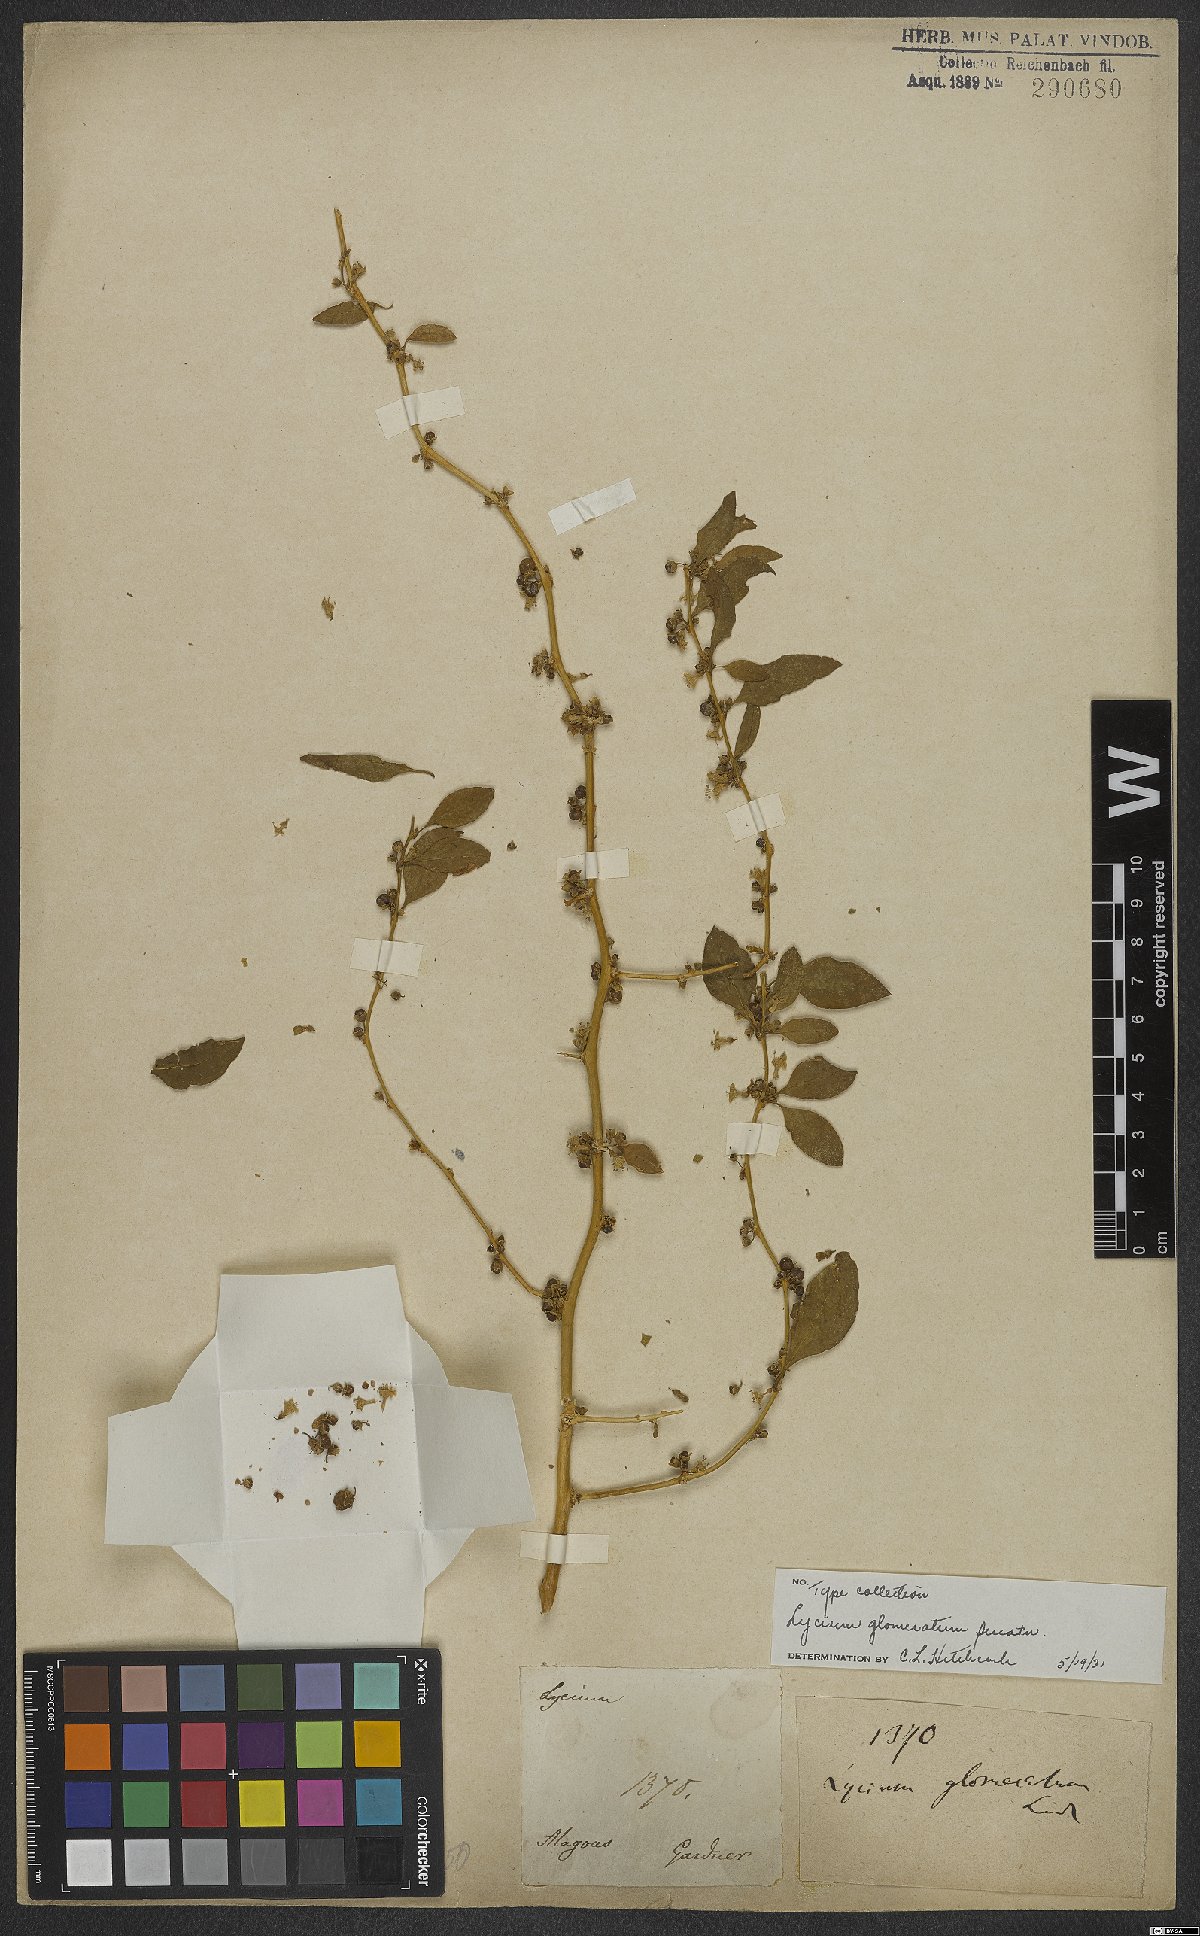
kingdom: Plantae
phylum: Tracheophyta
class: Magnoliopsida
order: Solanales
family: Solanaceae
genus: Lycium
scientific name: Lycium glomeratum
